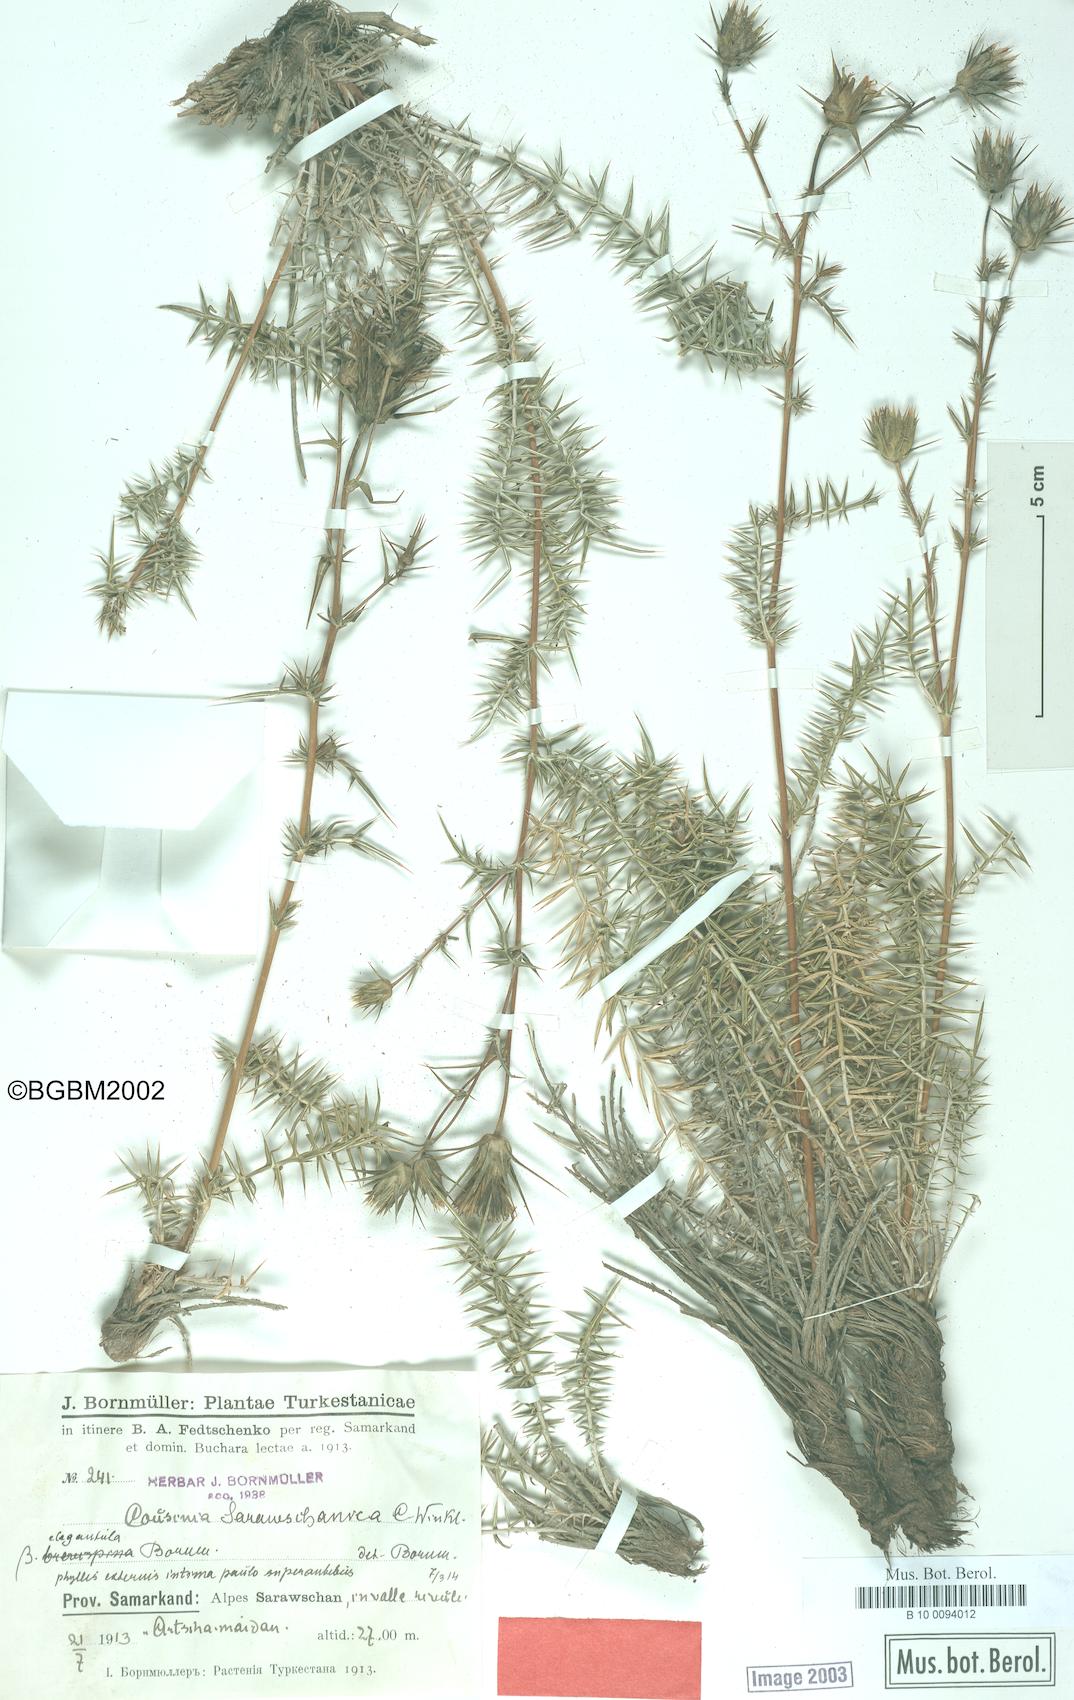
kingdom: Plantae
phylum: Tracheophyta
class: Magnoliopsida
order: Asterales
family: Asteraceae
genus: Cousinia
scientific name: Cousinia sarawschanica
